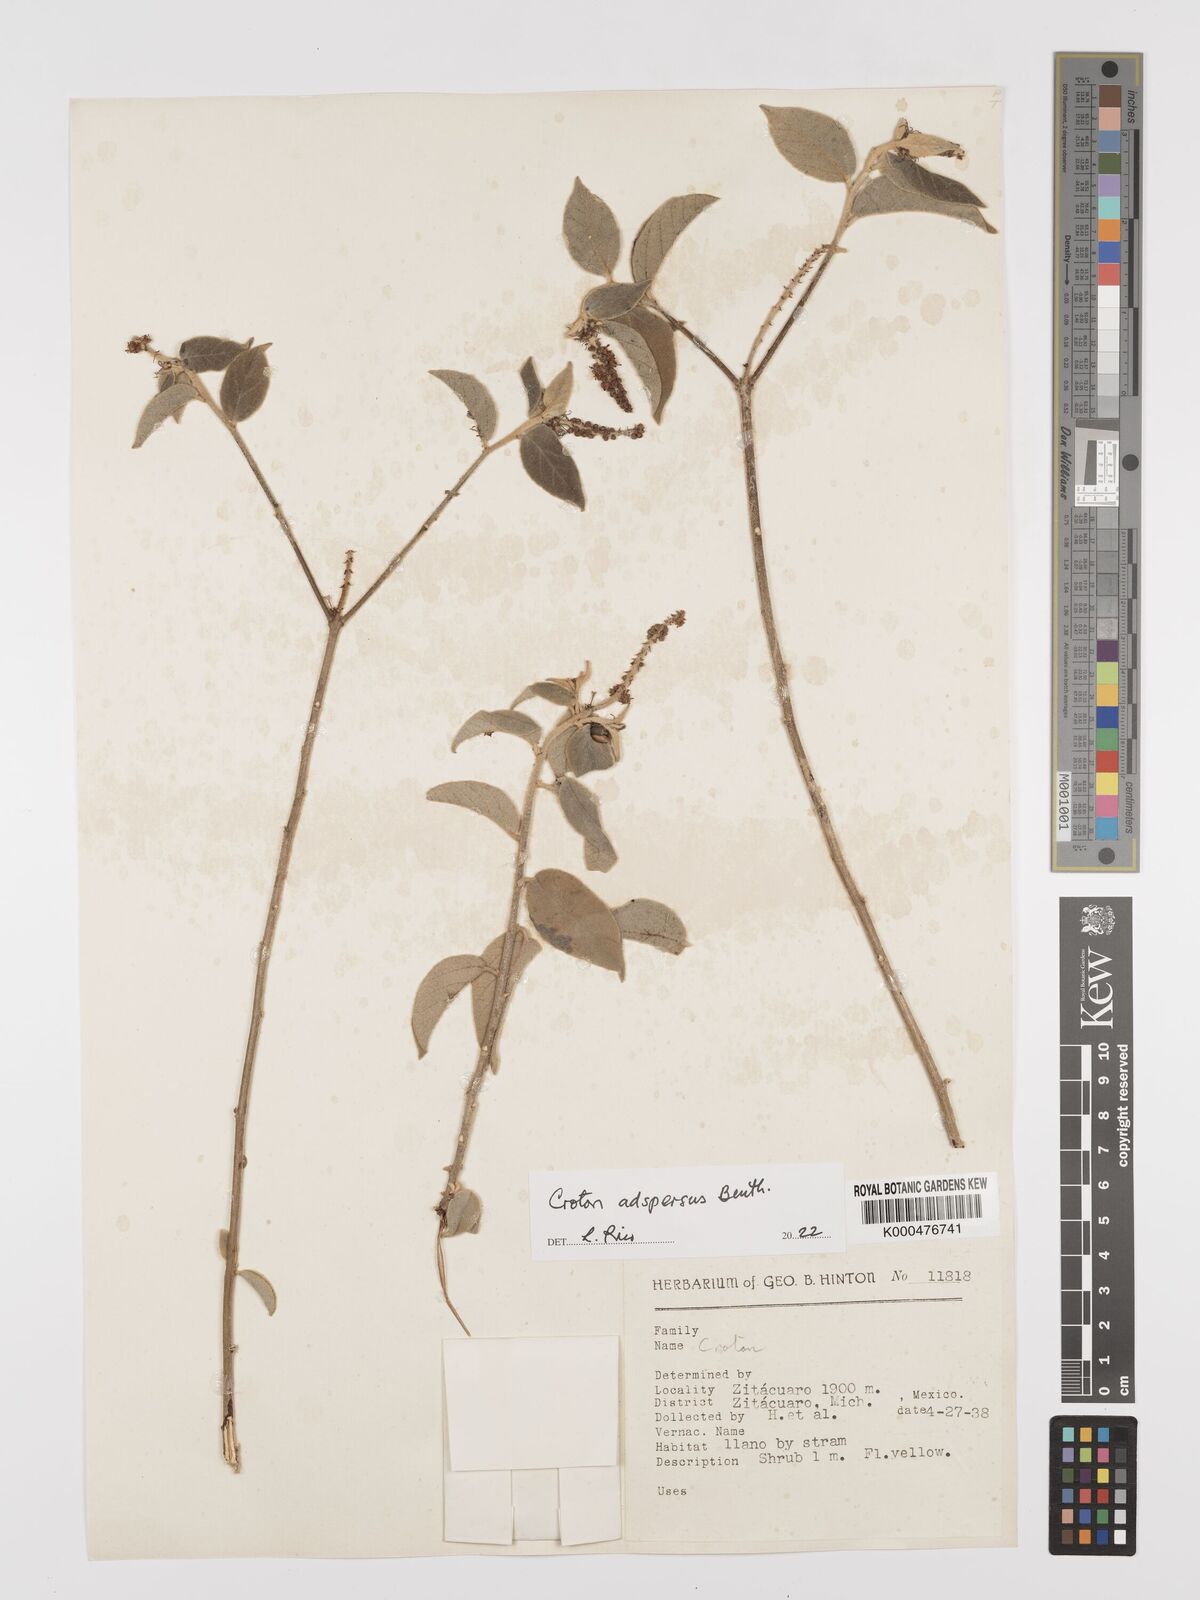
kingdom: Plantae
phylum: Tracheophyta
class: Magnoliopsida
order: Malpighiales
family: Euphorbiaceae
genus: Croton
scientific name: Croton adspersus
